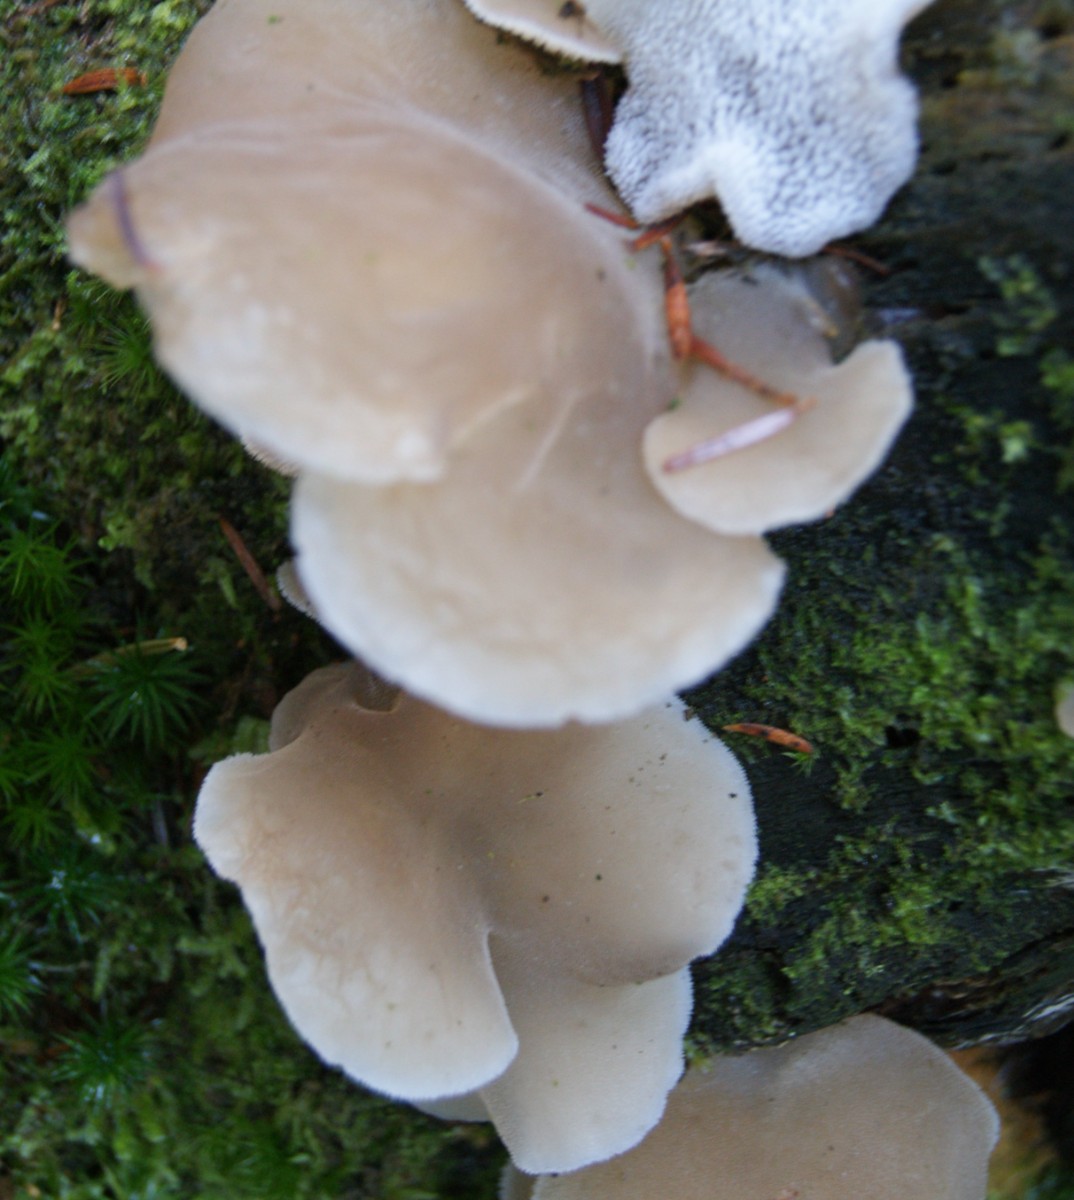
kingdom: Fungi
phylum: Basidiomycota
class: Agaricomycetes
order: Auriculariales
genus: Pseudohydnum
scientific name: Pseudohydnum gelatinosum
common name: bævretand
